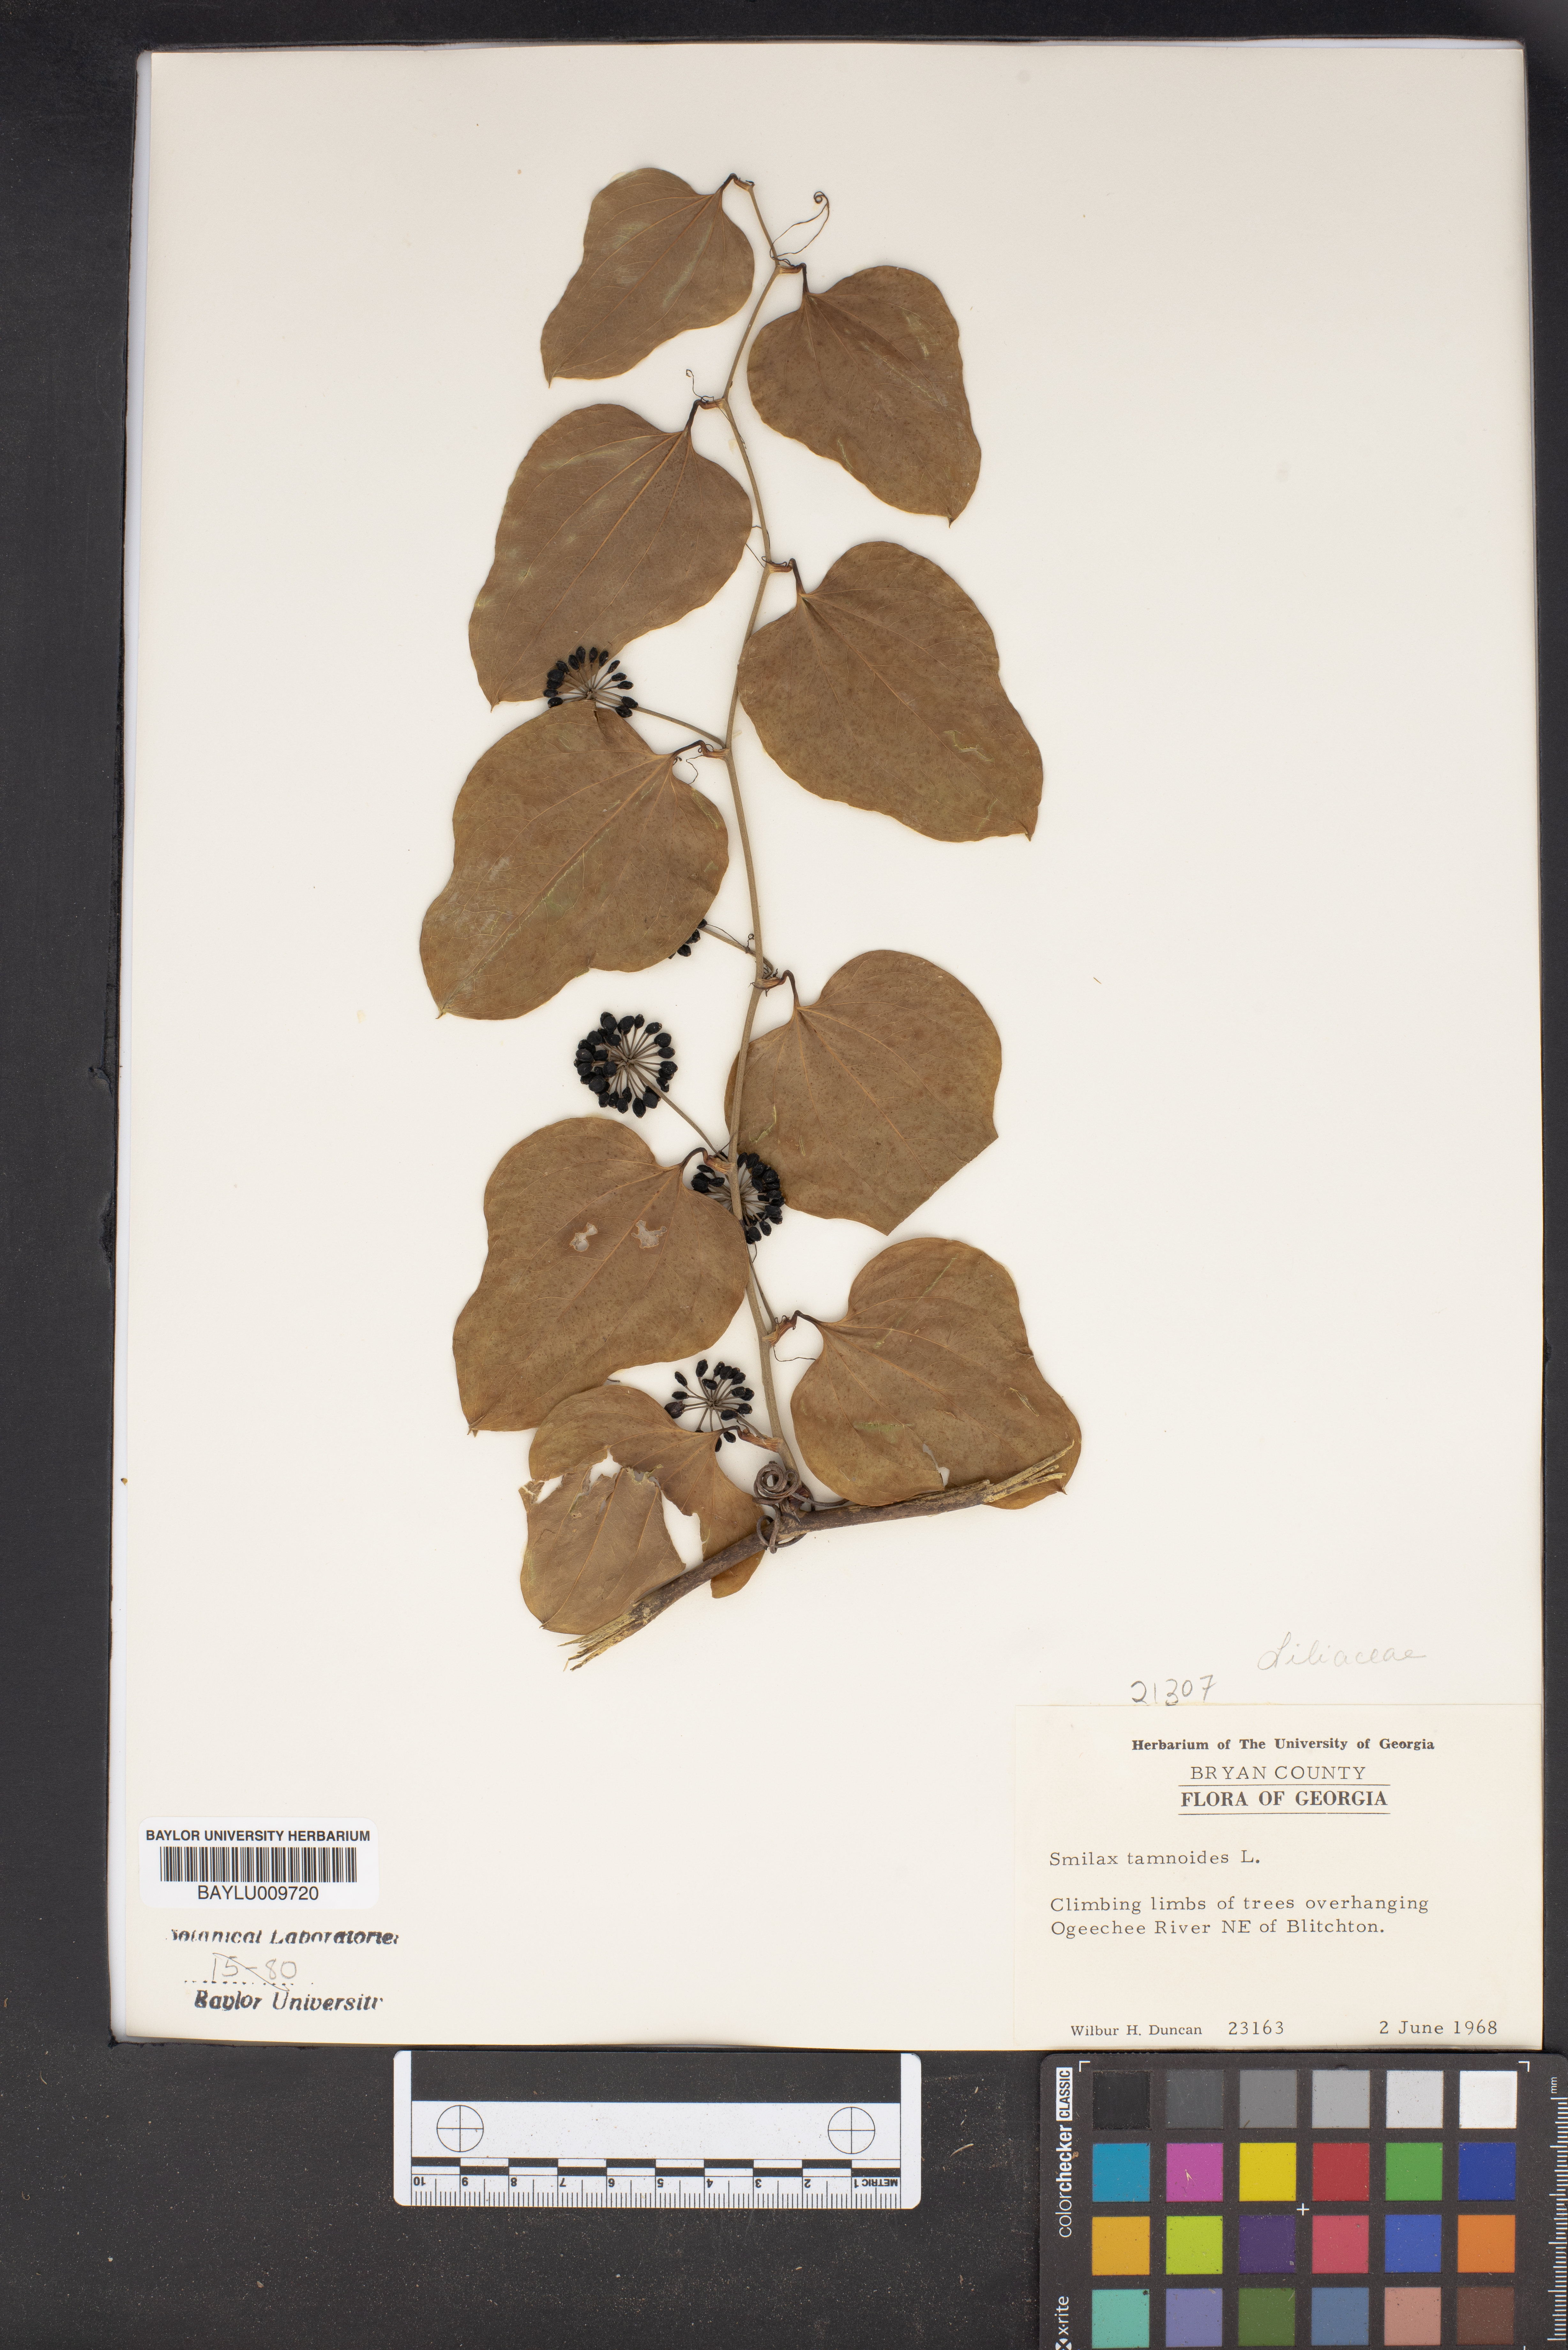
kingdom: Plantae
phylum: Tracheophyta
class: Liliopsida
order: Liliales
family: Smilacaceae
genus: Smilax
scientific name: Smilax tamnoides
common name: Hellfetter
